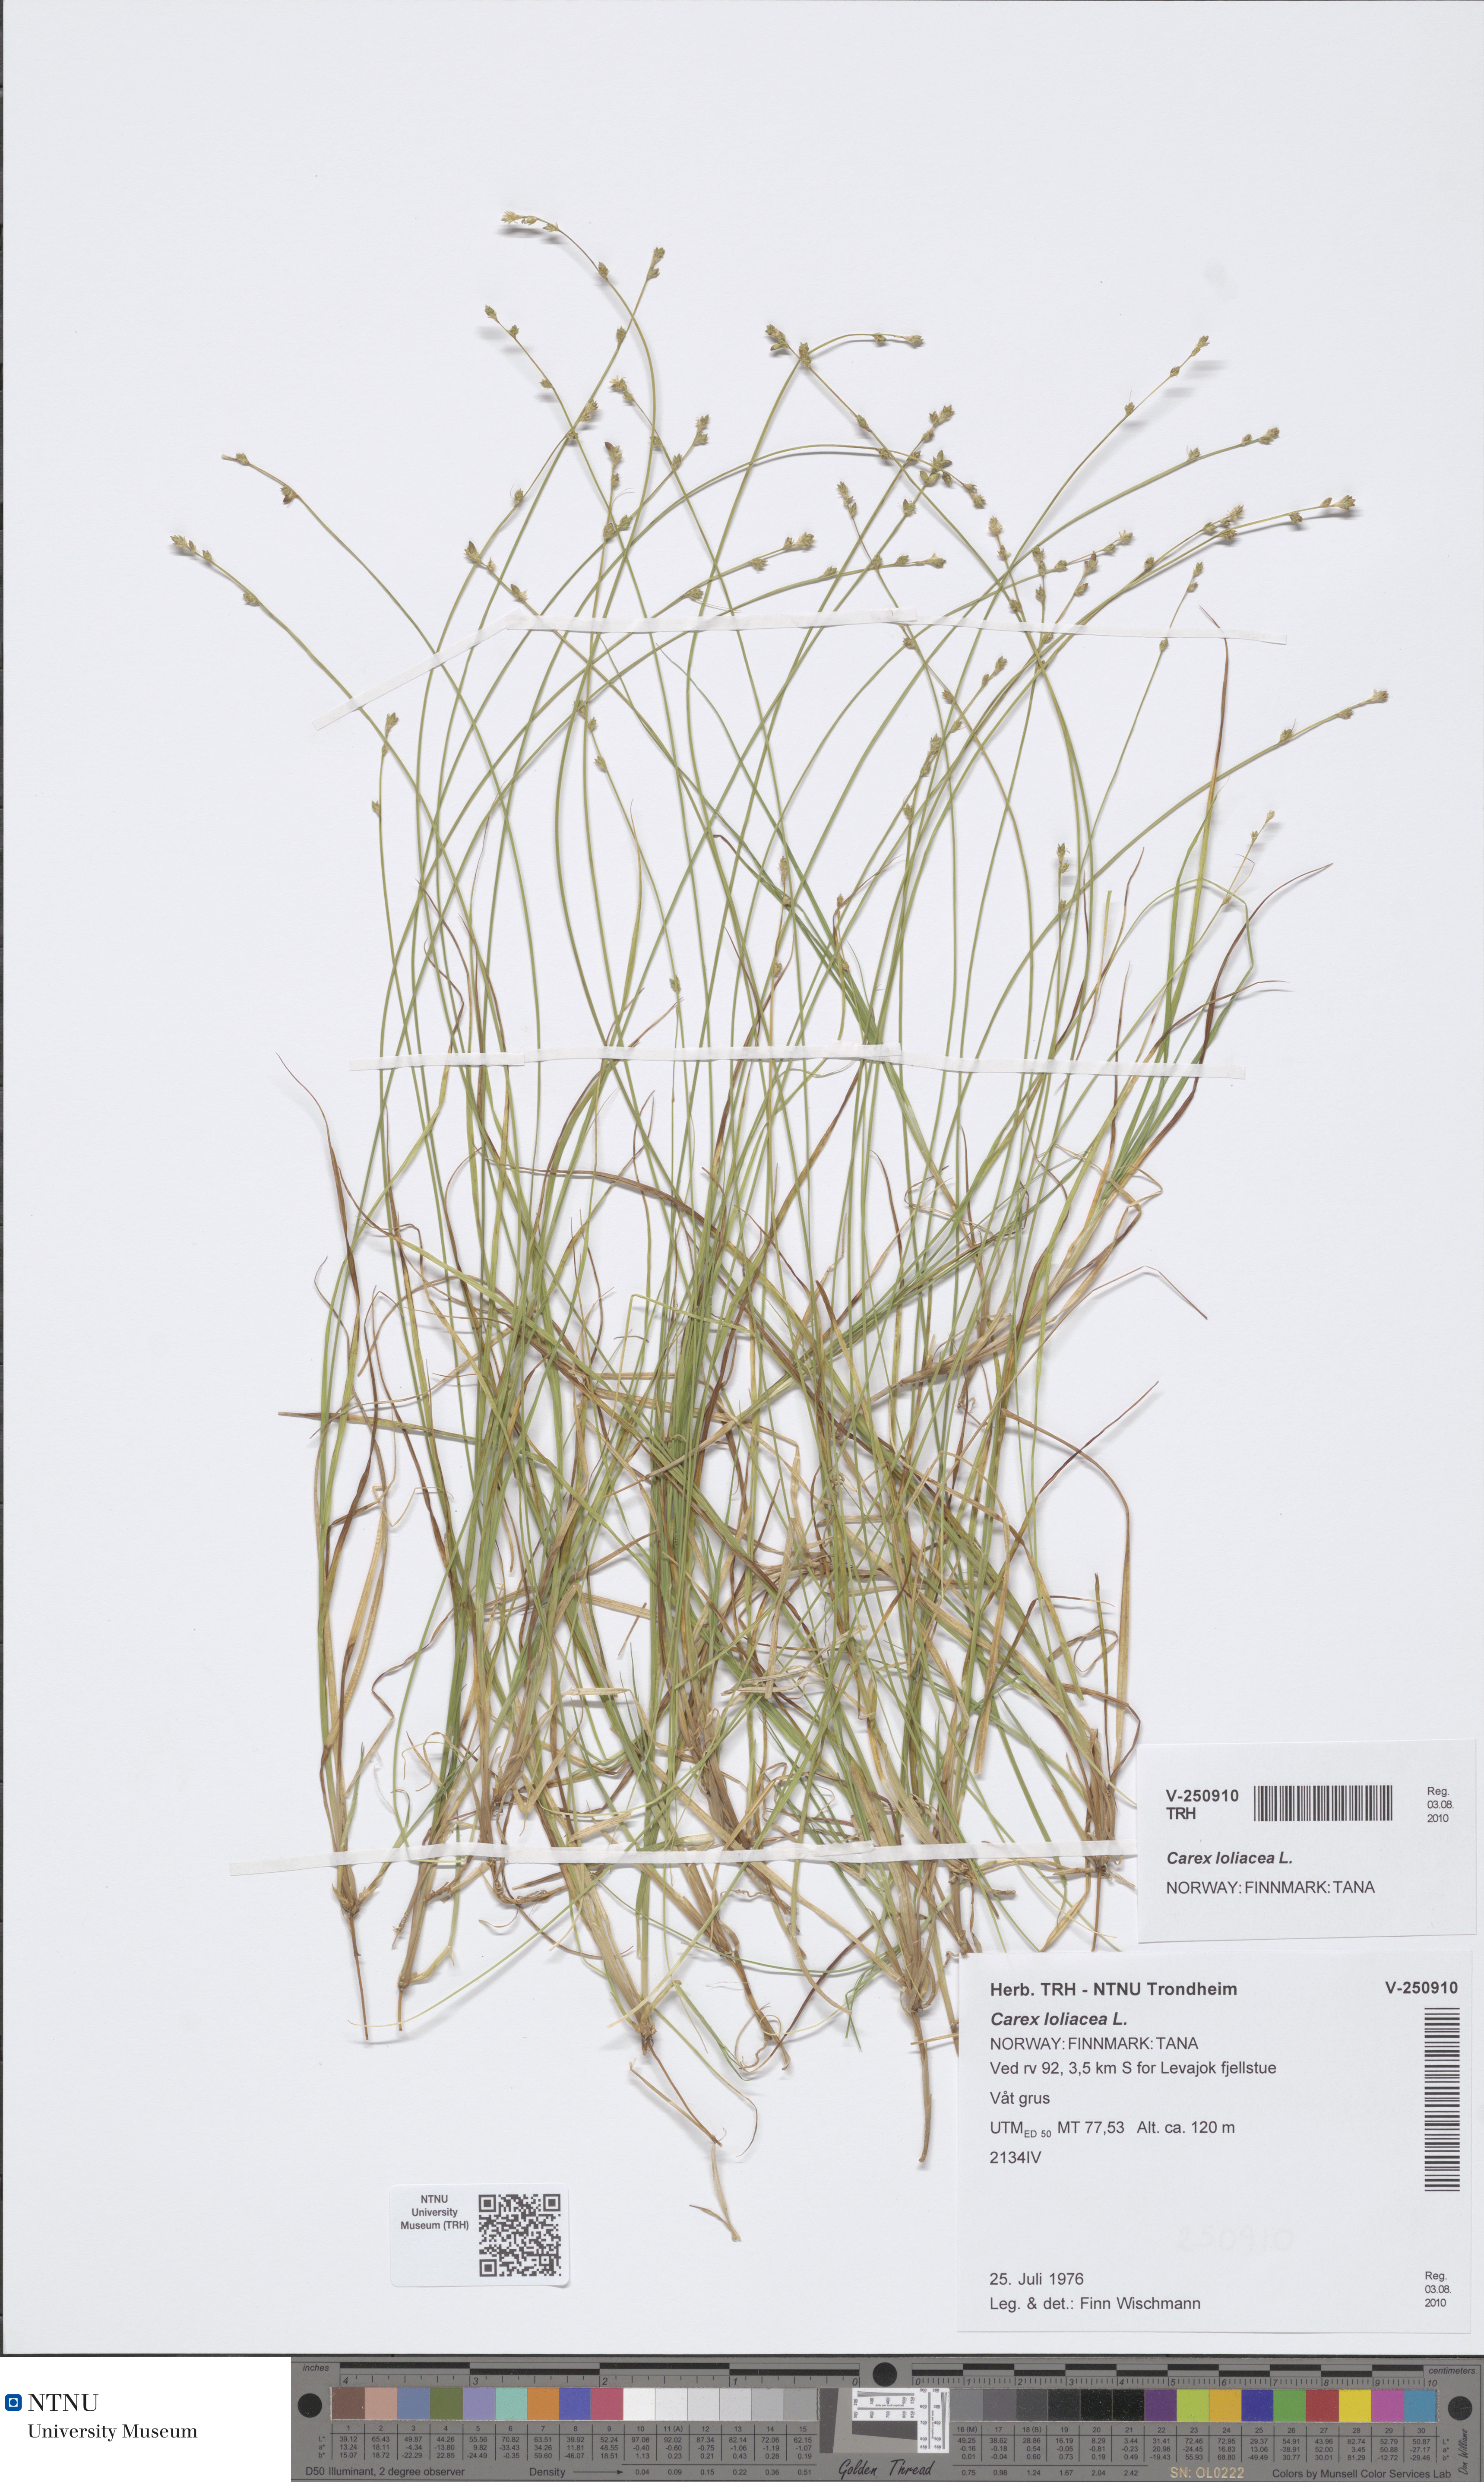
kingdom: Plantae
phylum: Tracheophyta
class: Liliopsida
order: Poales
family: Cyperaceae
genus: Carex
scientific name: Carex loliacea
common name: Ryegrass sedge
